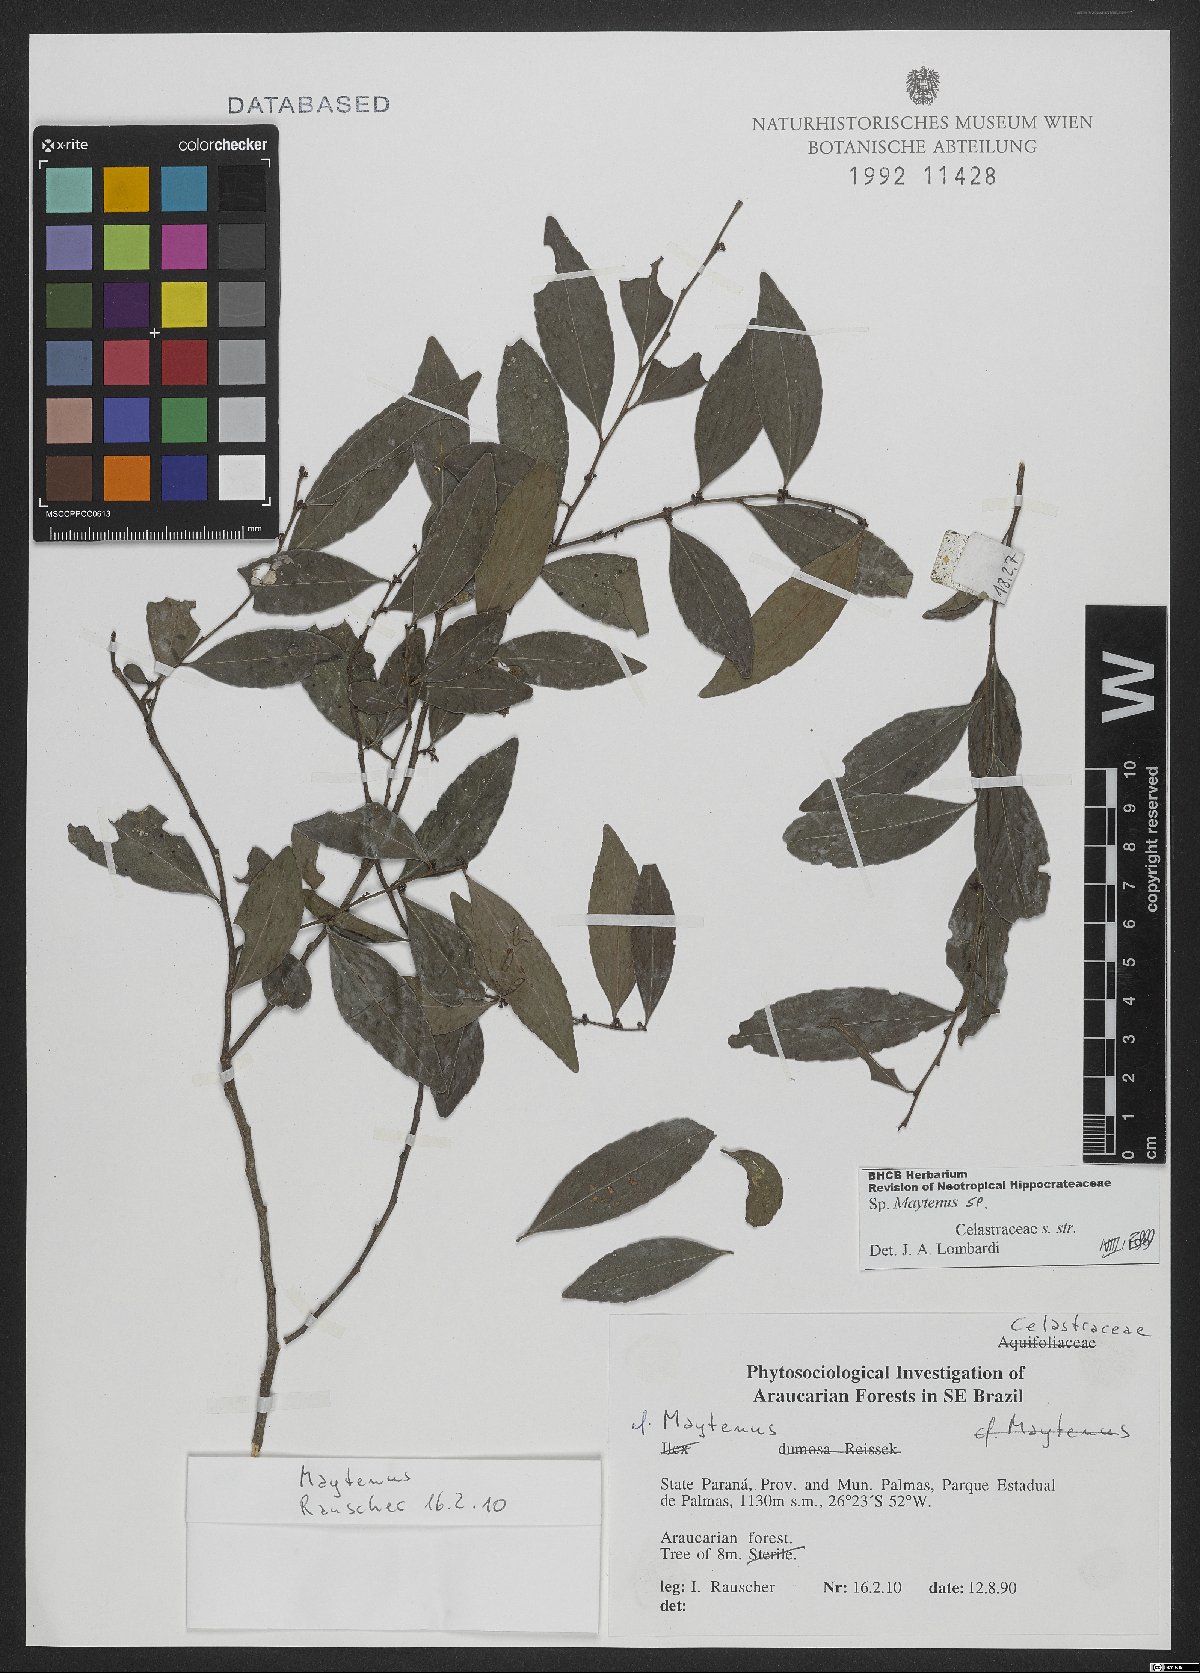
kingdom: Plantae
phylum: Tracheophyta
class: Magnoliopsida
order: Celastrales
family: Celastraceae
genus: Maytenus
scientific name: Maytenus
